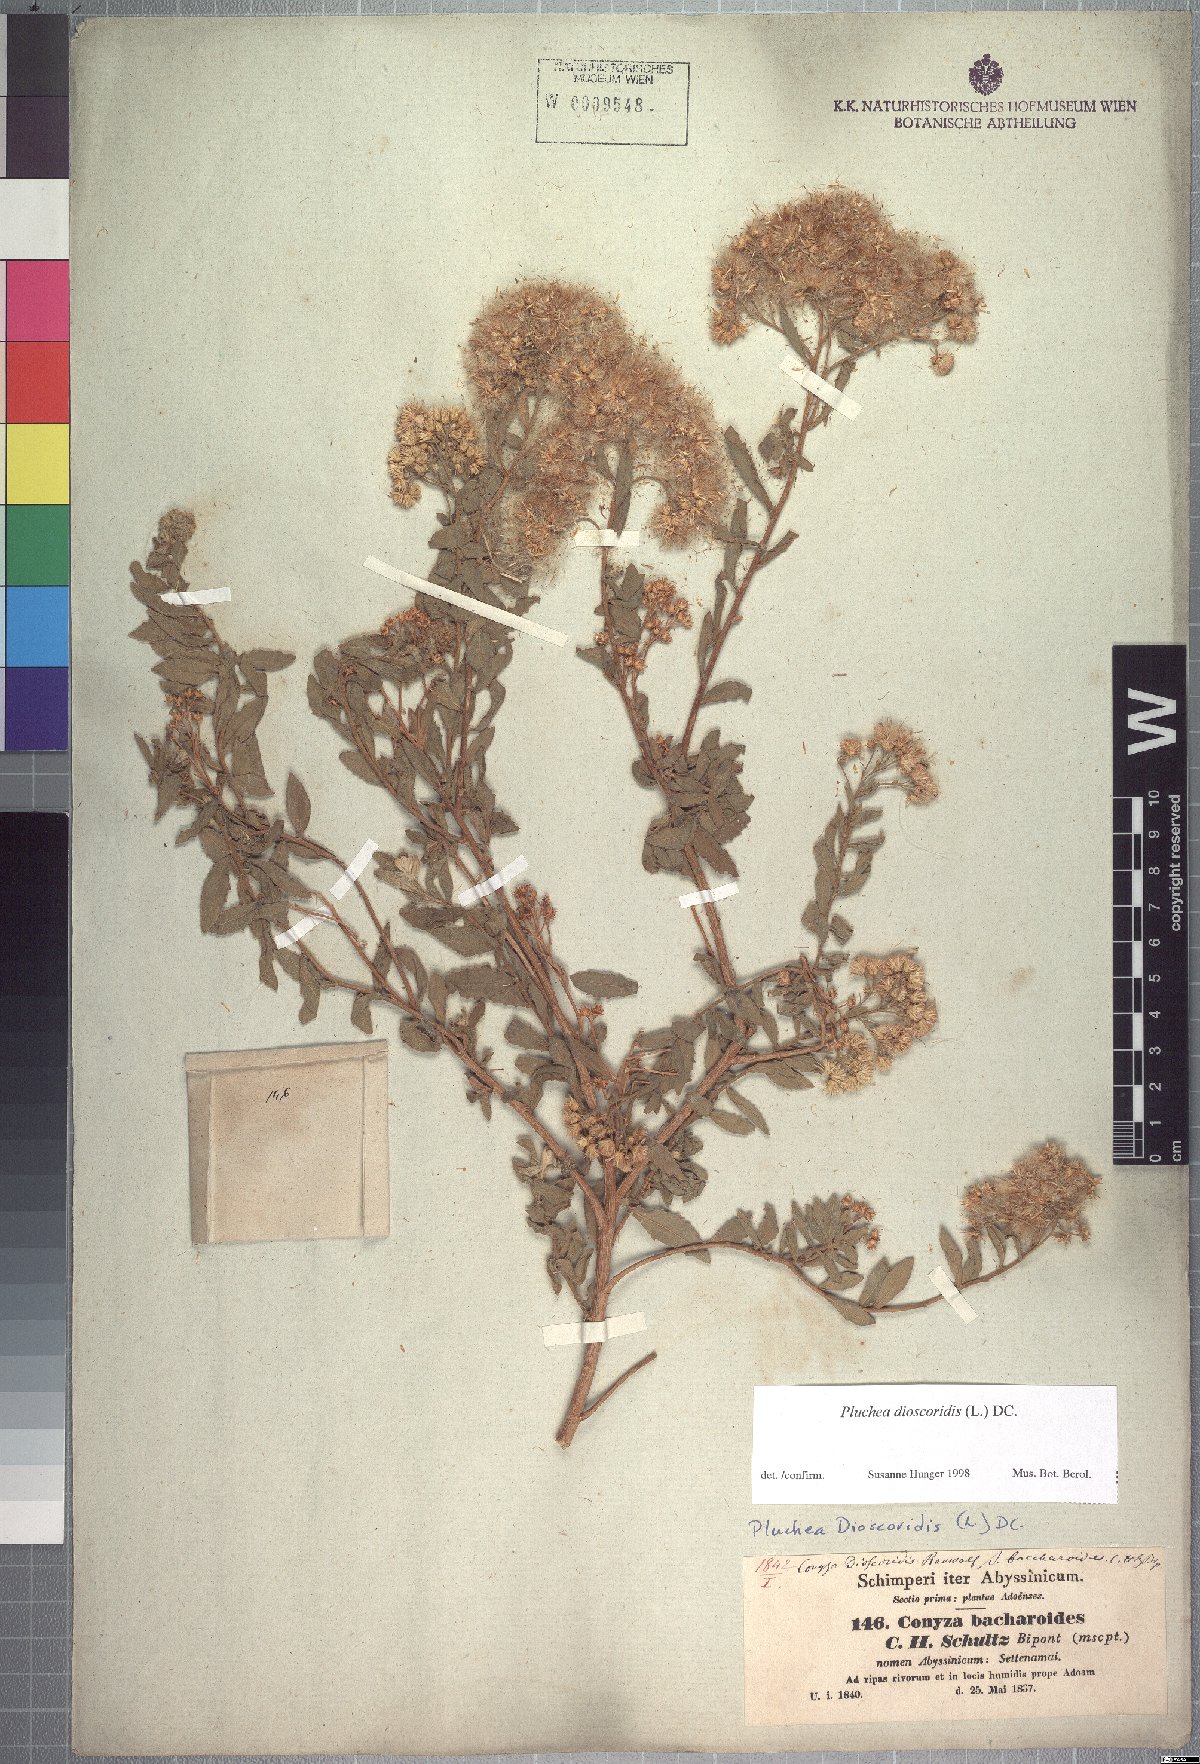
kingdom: Plantae
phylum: Tracheophyta
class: Magnoliopsida
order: Asterales
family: Asteraceae
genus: Pluchea
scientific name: Pluchea bojeri
